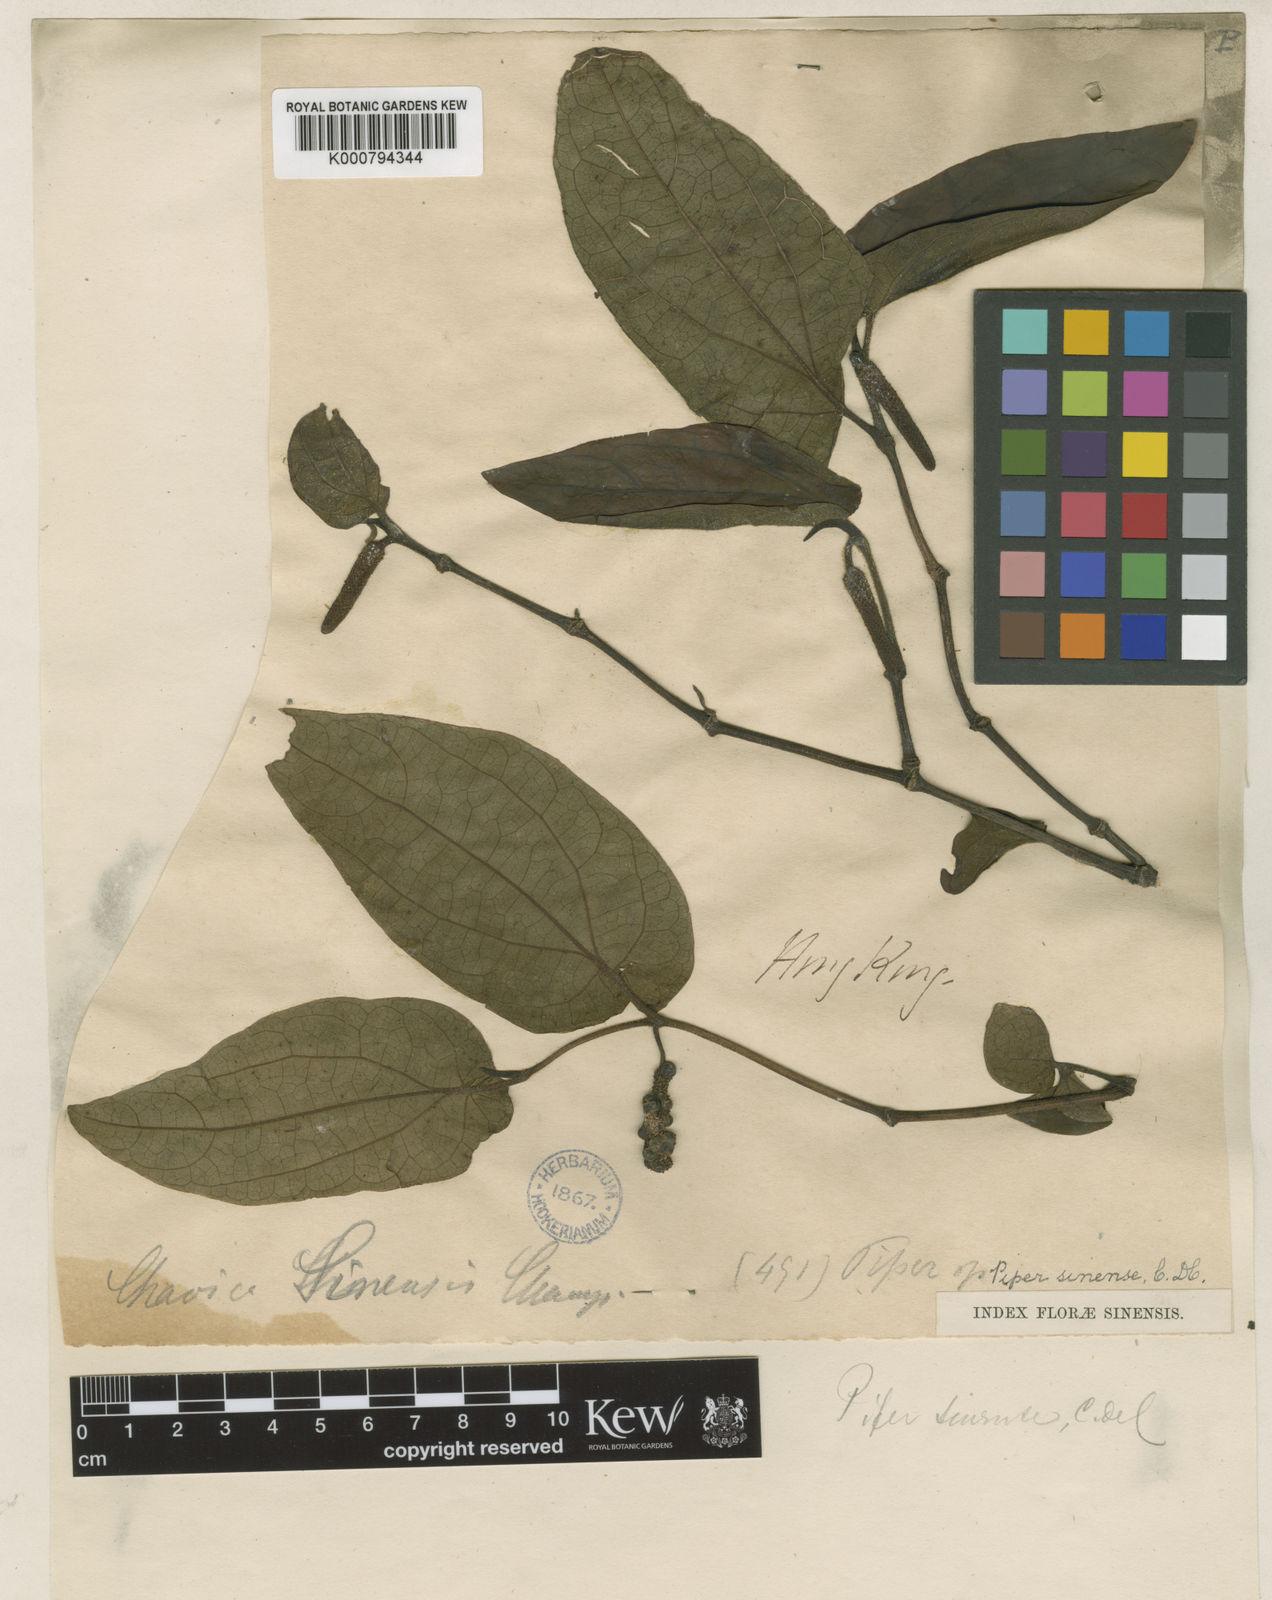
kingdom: Plantae
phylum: Tracheophyta
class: Magnoliopsida
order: Piperales
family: Piperaceae
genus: Piper
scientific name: Piper
